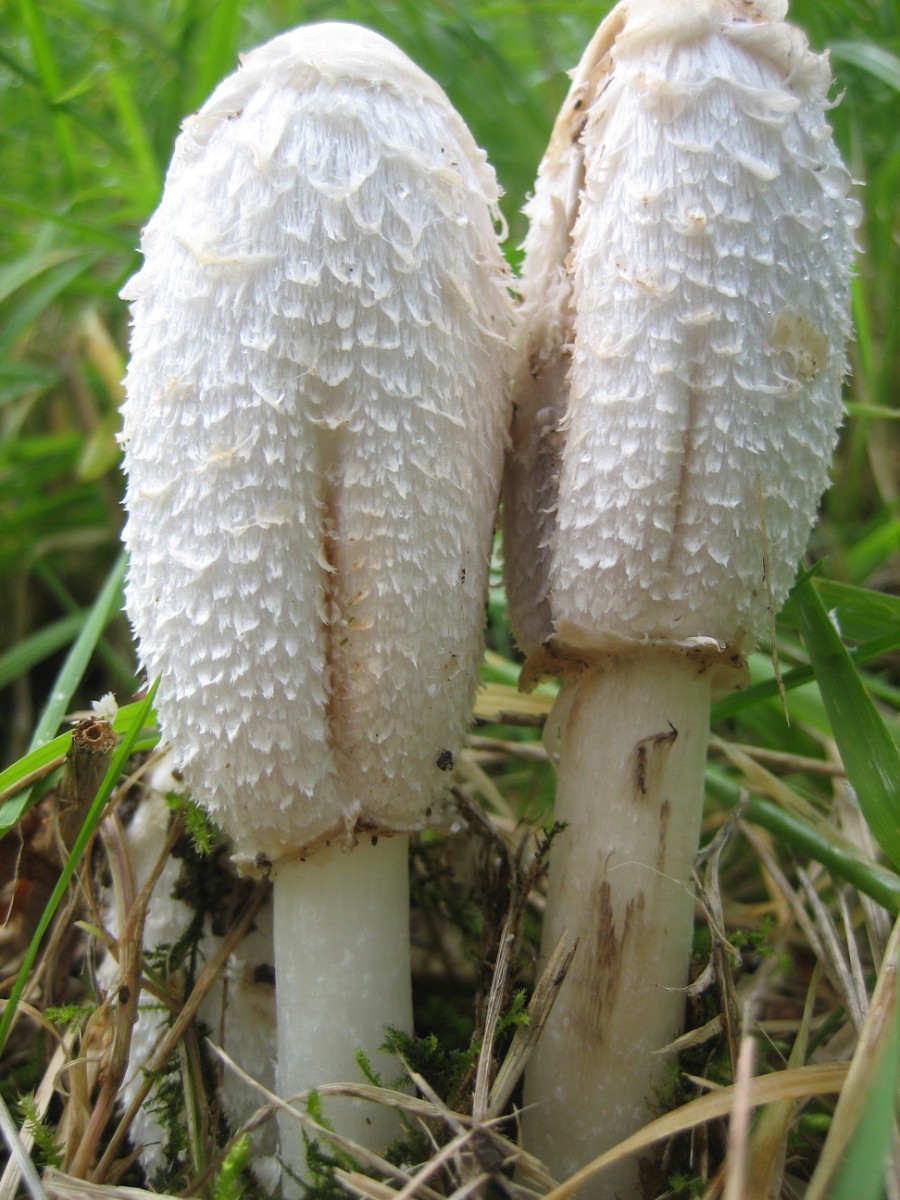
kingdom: Fungi
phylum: Basidiomycota
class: Agaricomycetes
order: Agaricales
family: Agaricaceae
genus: Coprinus
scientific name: Coprinus comatus
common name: stor parykhat
